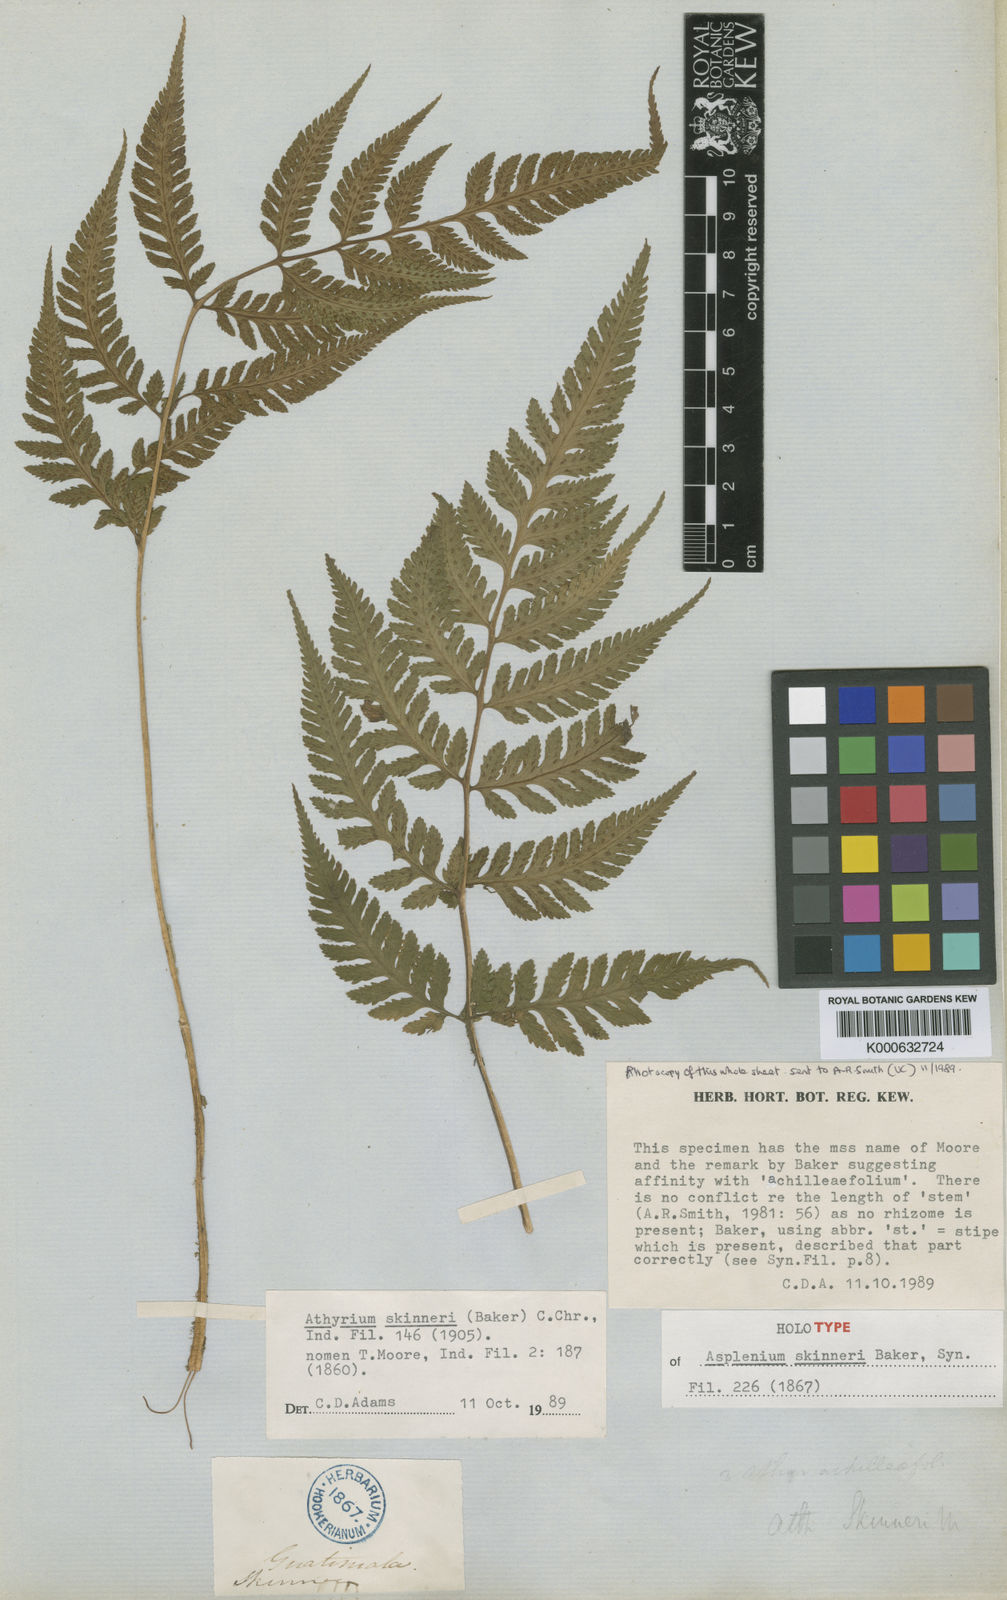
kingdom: Plantae
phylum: Tracheophyta
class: Polypodiopsida
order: Polypodiales
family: Athyriaceae
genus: Ephemeropteris
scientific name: Ephemeropteris skinneri
